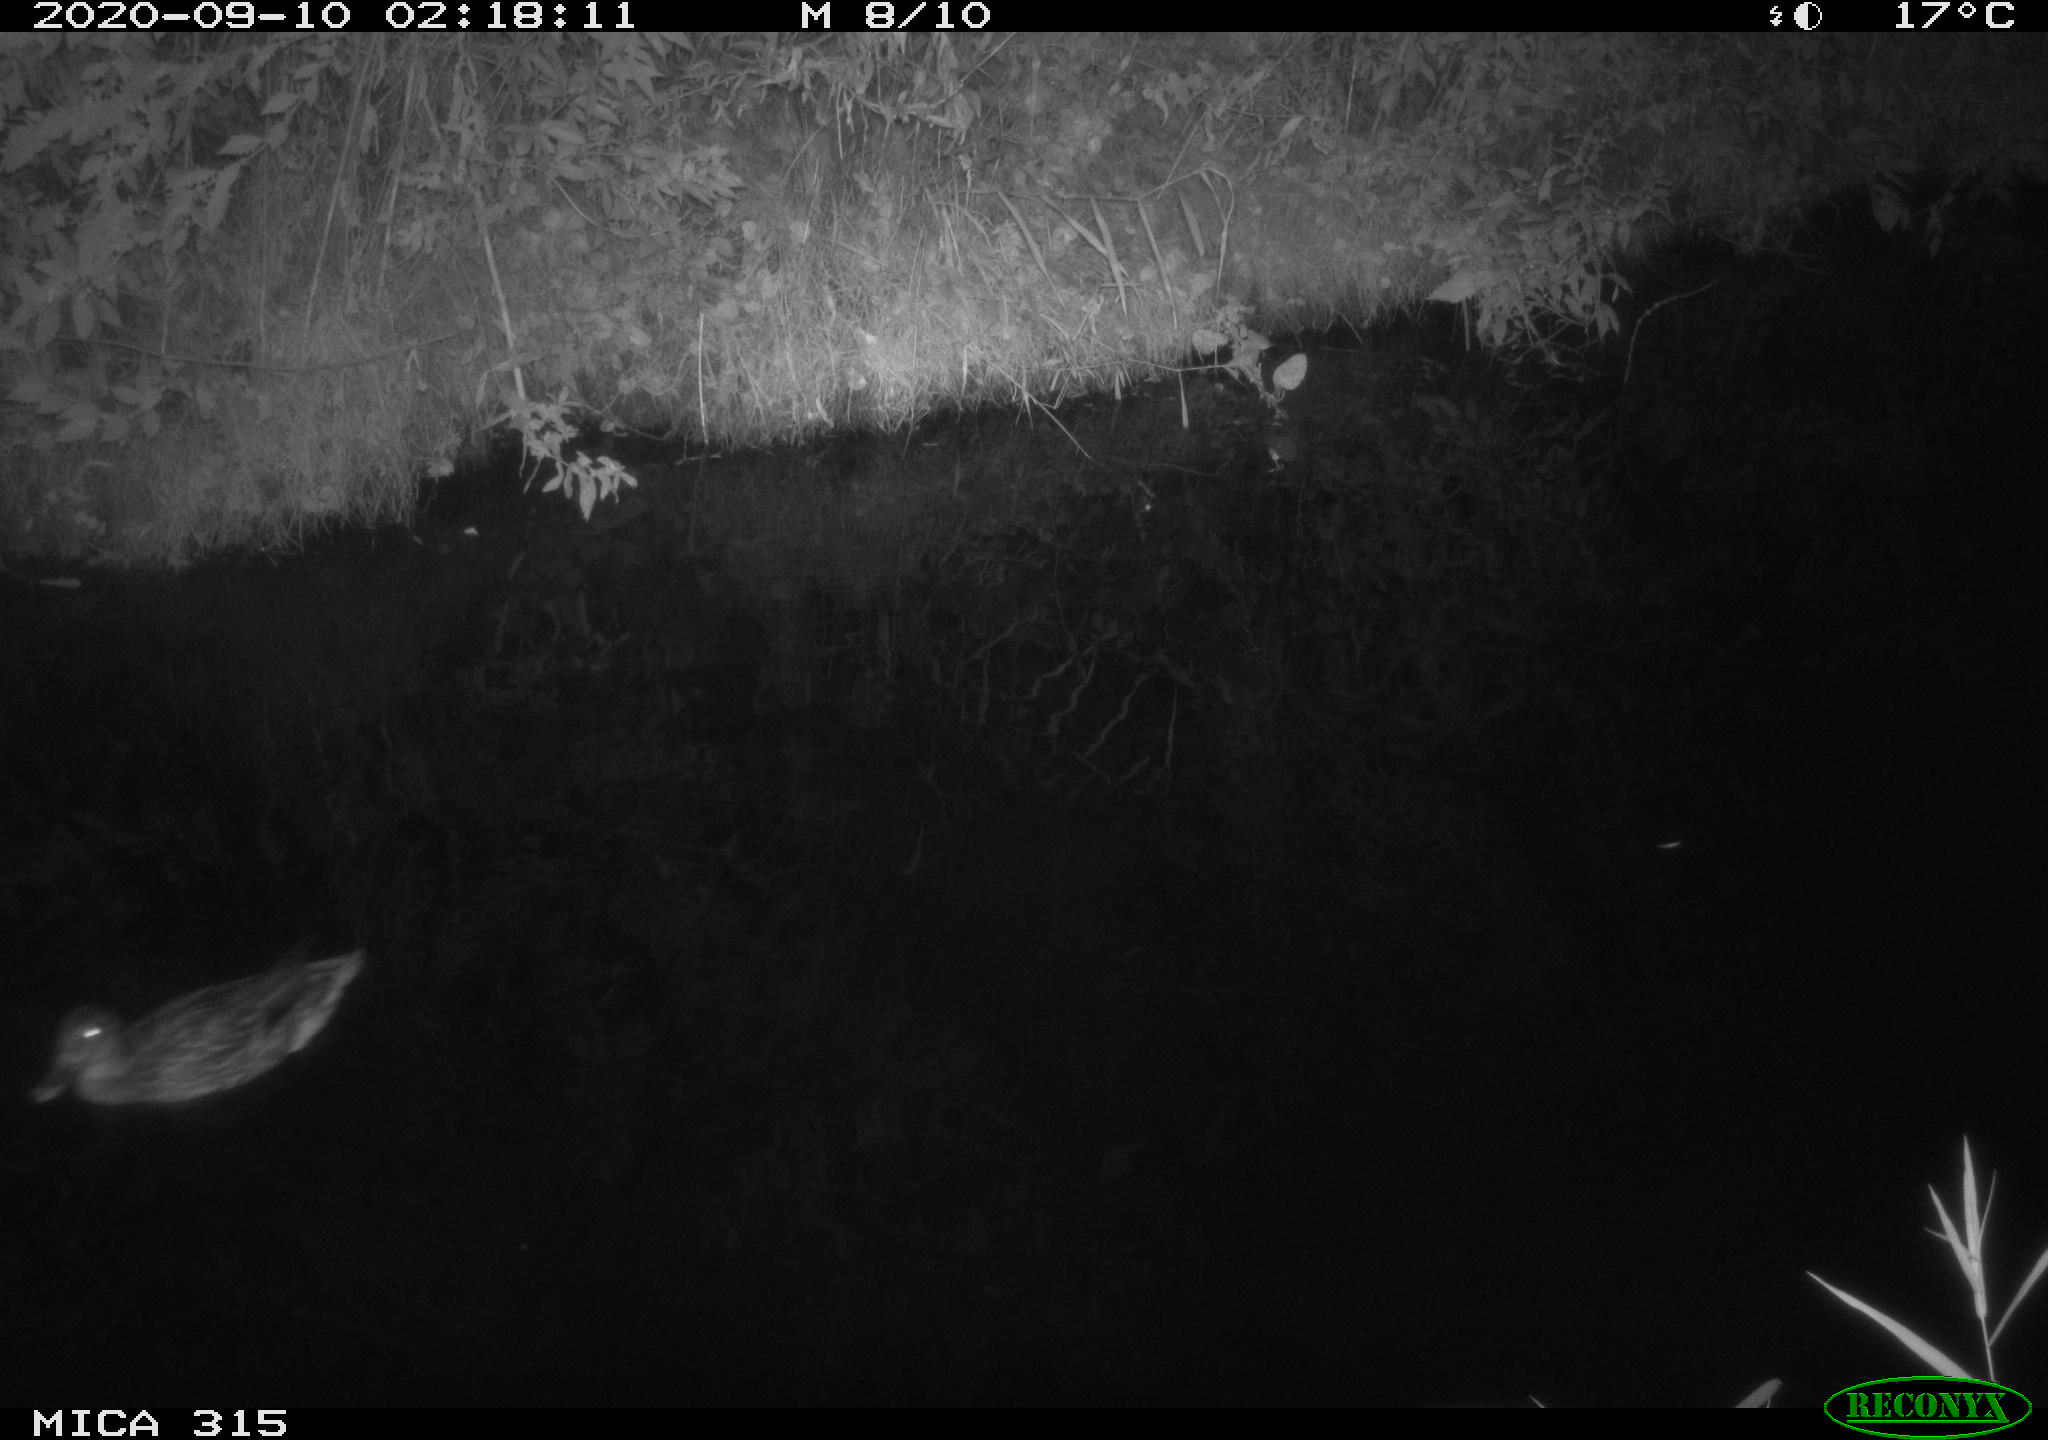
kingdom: Animalia
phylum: Chordata
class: Aves
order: Anseriformes
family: Anatidae
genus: Anas
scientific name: Anas platyrhynchos
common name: Mallard
